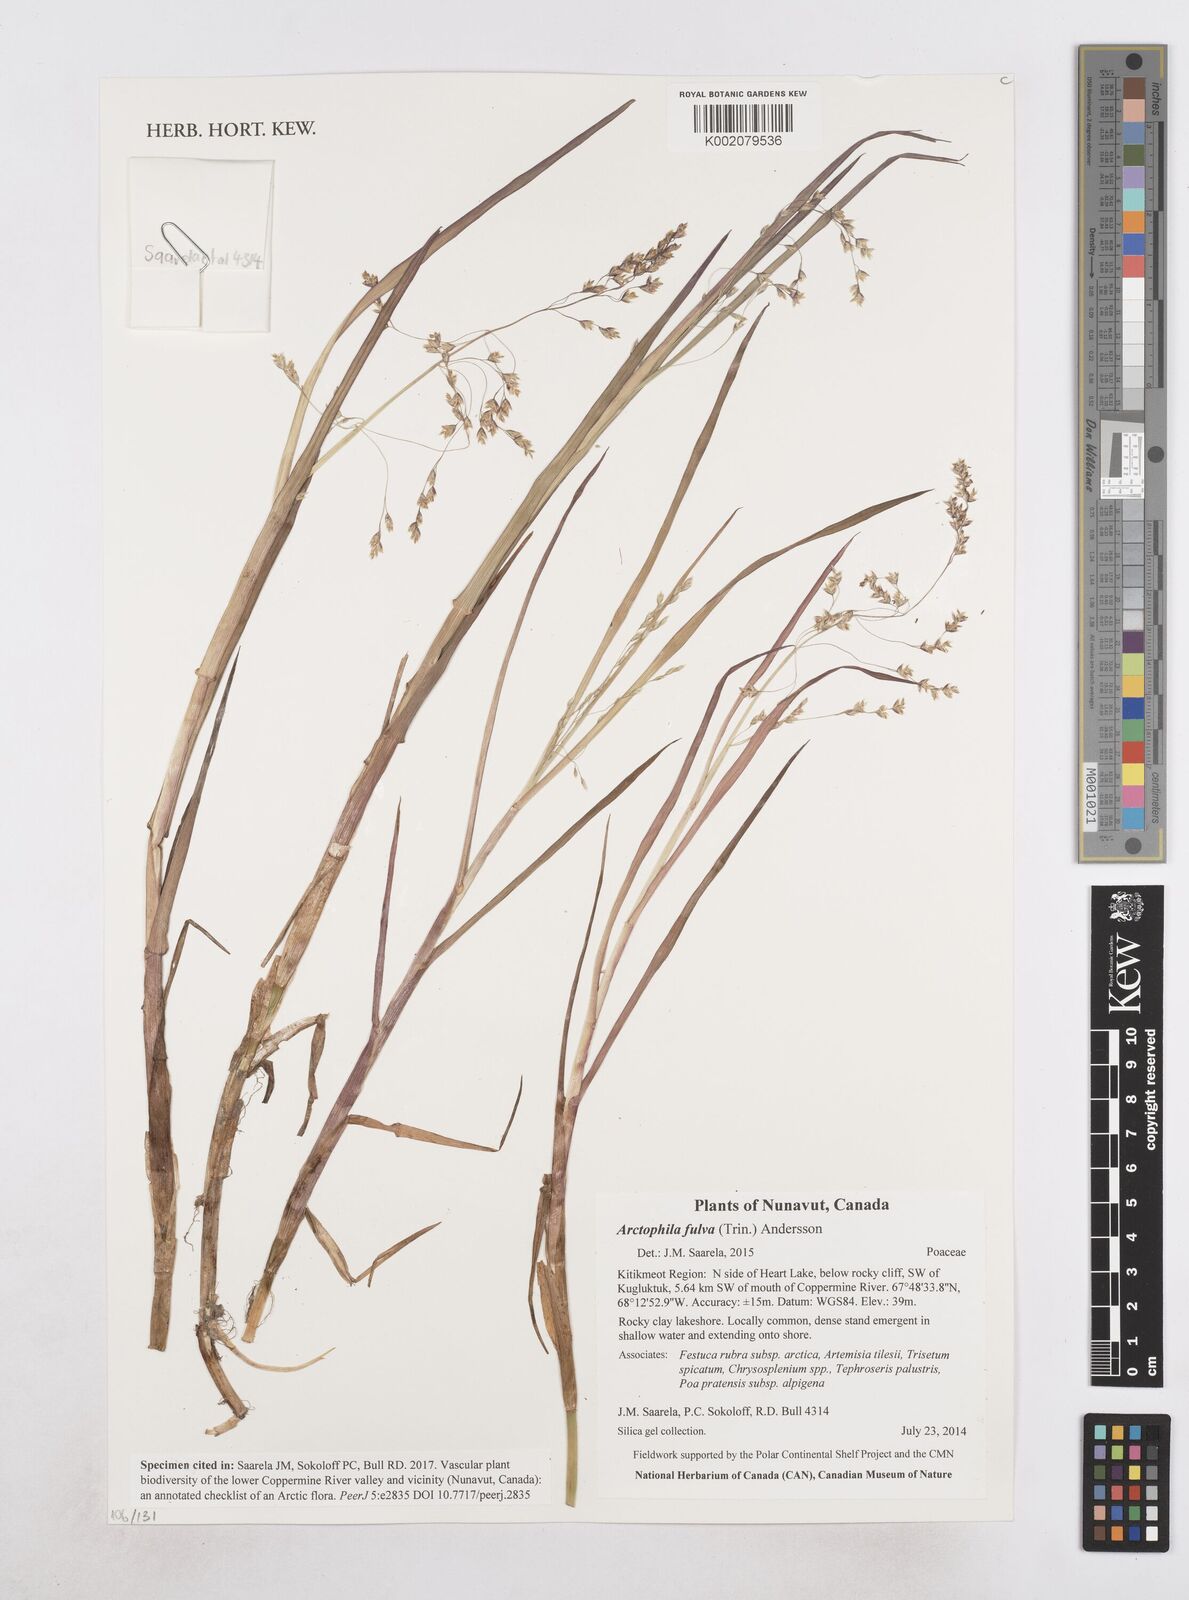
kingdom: Plantae
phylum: Tracheophyta
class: Liliopsida
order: Poales
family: Poaceae
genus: Dupontia
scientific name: Dupontia fulva
